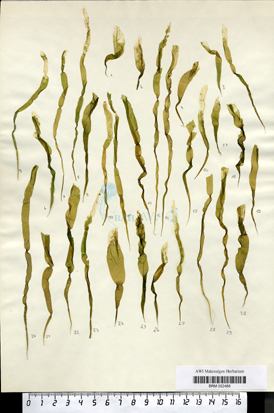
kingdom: Plantae
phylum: Chlorophyta
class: Ulvophyceae
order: Ulvales
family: Ulvaceae
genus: Ulva
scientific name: Ulva intestinalis
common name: Gut weed
